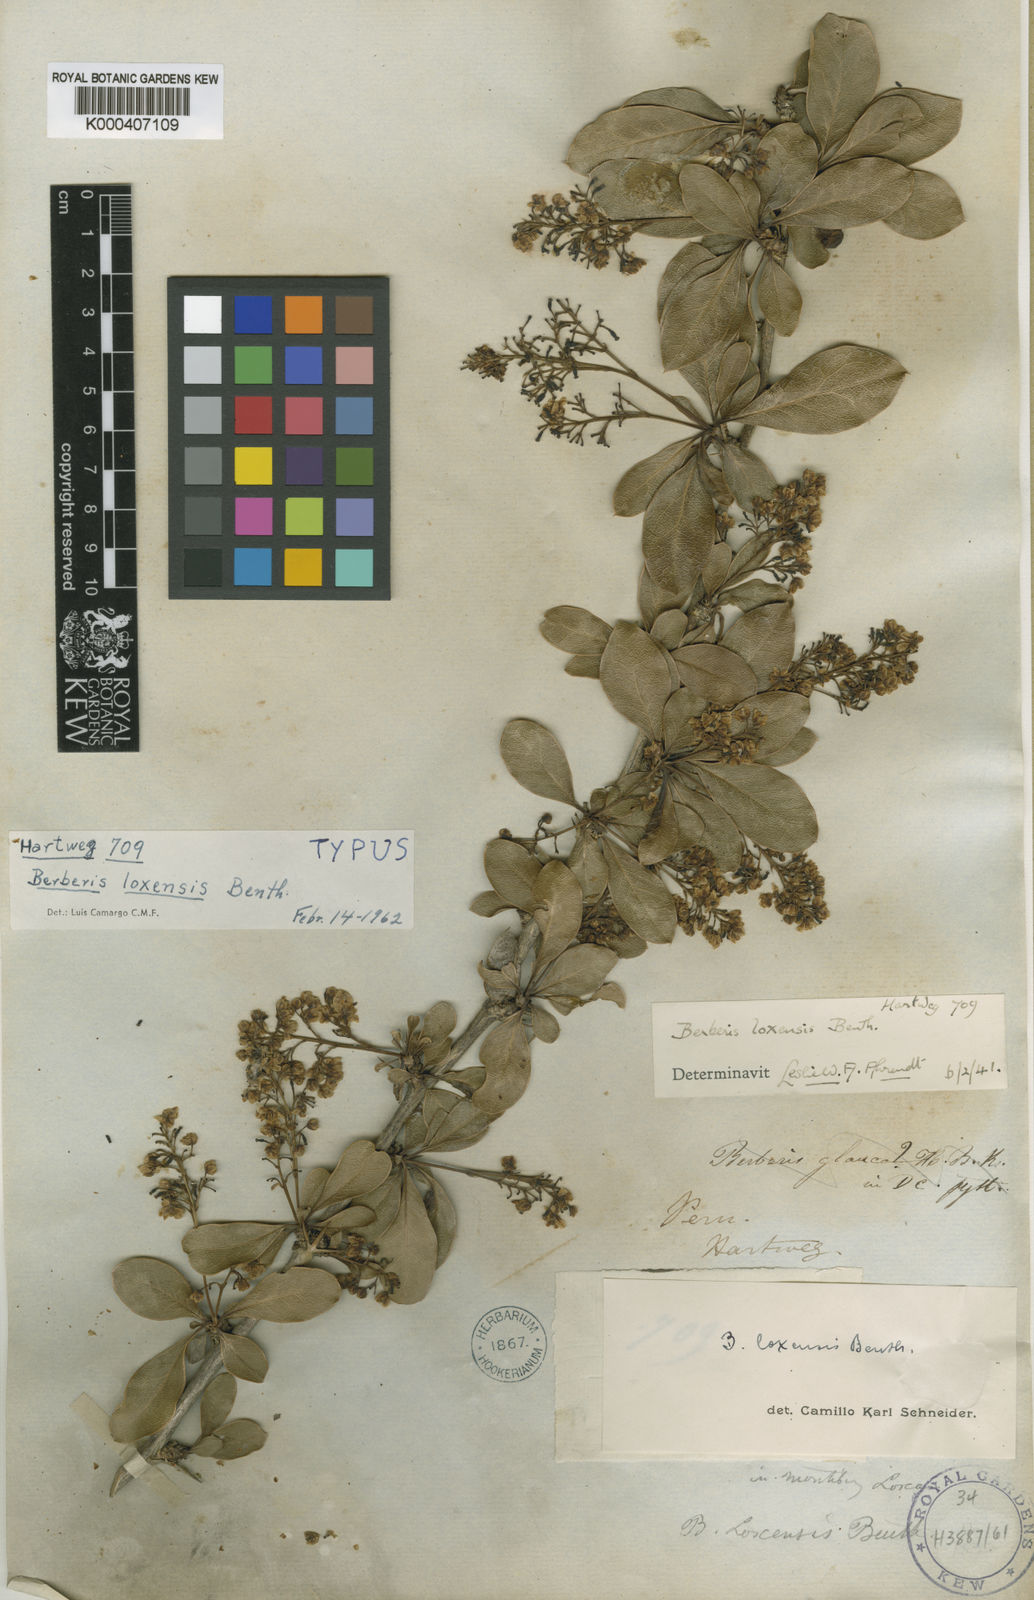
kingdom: Plantae
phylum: Tracheophyta
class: Magnoliopsida
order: Ranunculales
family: Berberidaceae
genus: Berberis
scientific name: Berberis multiflora
